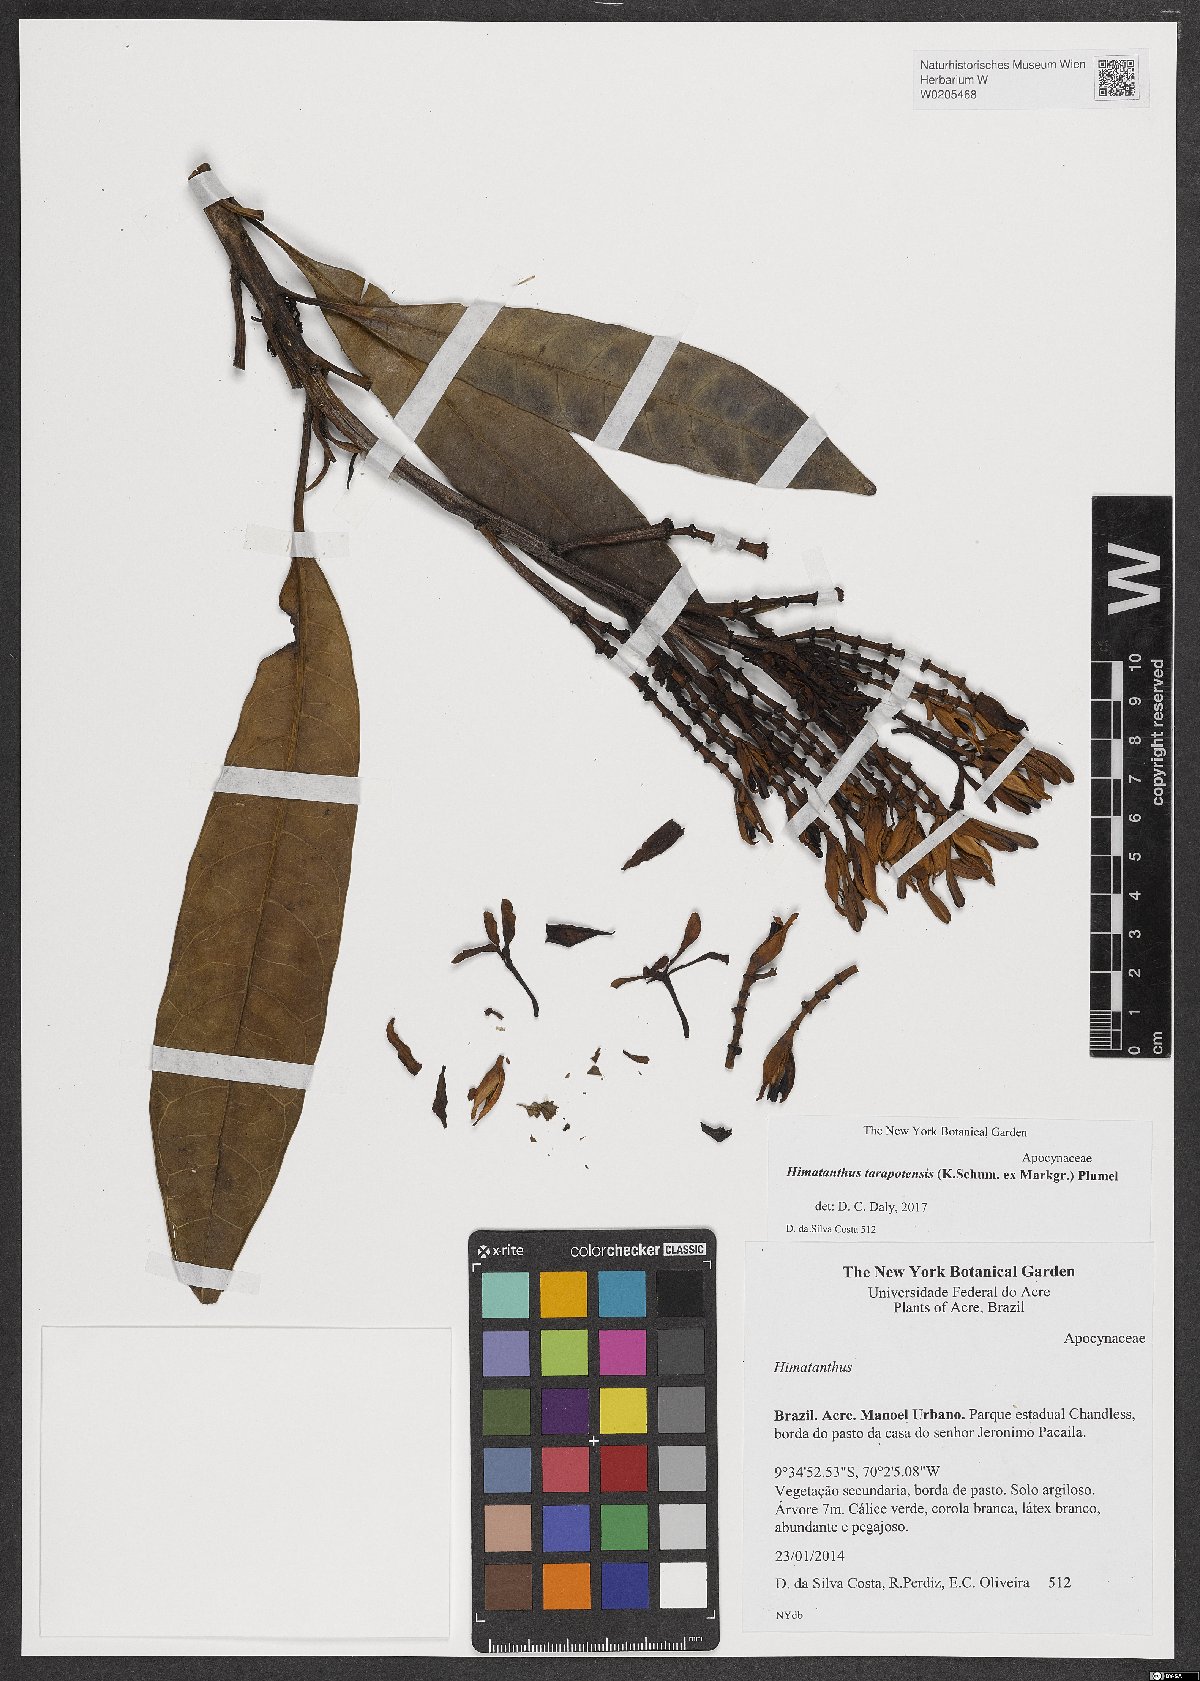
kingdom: Plantae
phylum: Tracheophyta
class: Magnoliopsida
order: Gentianales
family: Apocynaceae
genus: Himatanthus
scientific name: Himatanthus tarapotensis
